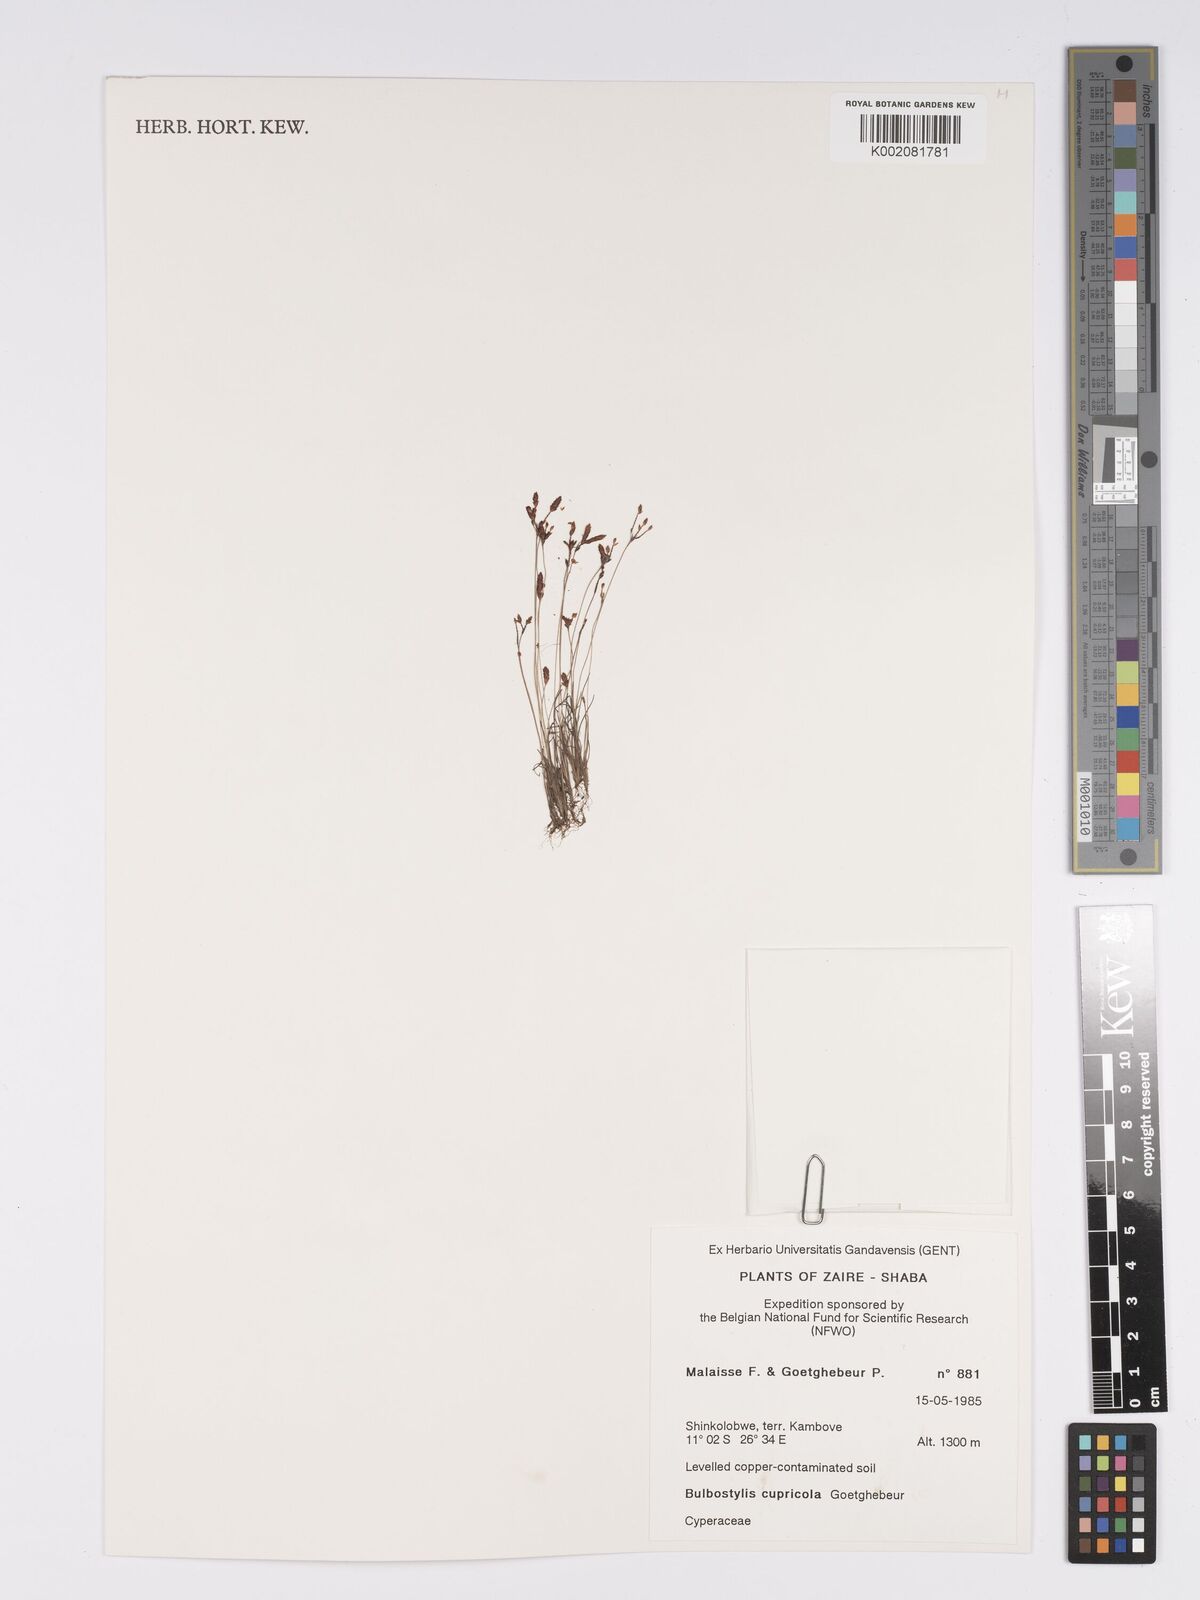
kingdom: Plantae
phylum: Tracheophyta
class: Liliopsida
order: Poales
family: Cyperaceae
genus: Bulbostylis
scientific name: Bulbostylis cupricola
